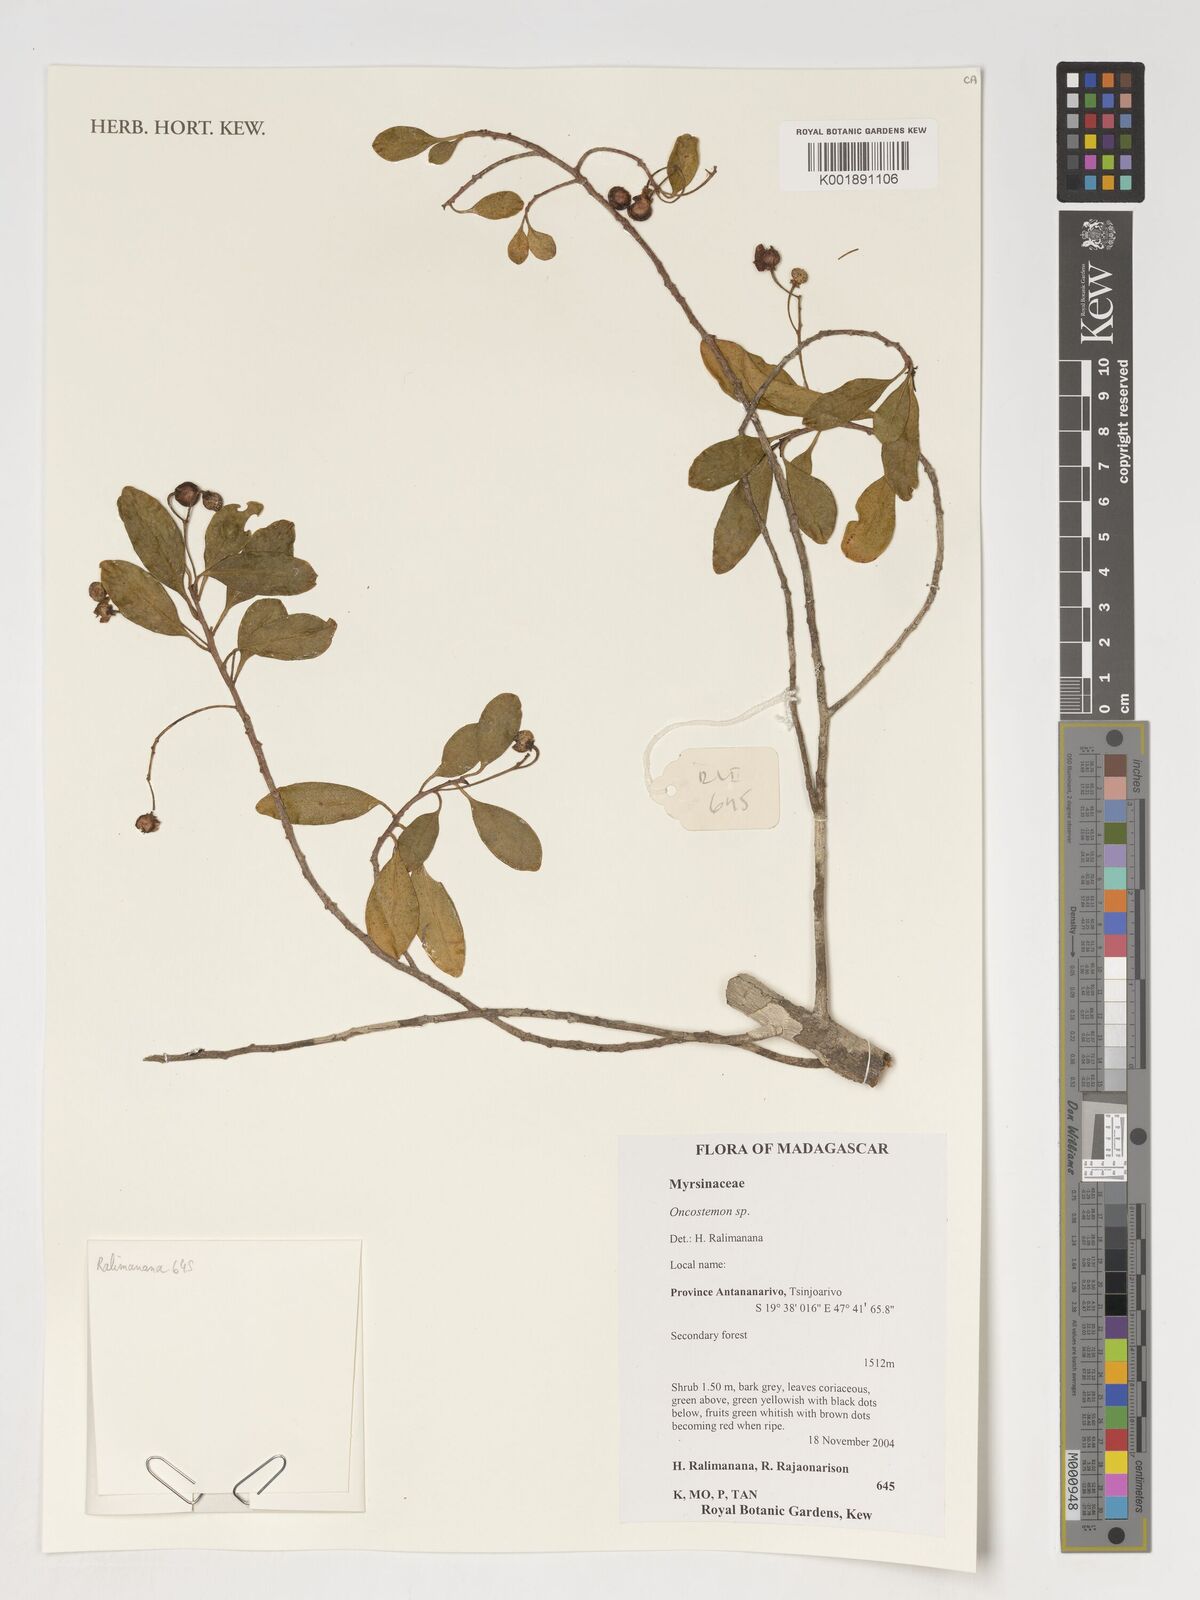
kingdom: Plantae
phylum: Tracheophyta
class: Magnoliopsida
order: Ericales
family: Primulaceae
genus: Oncostemum
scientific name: Oncostemum
